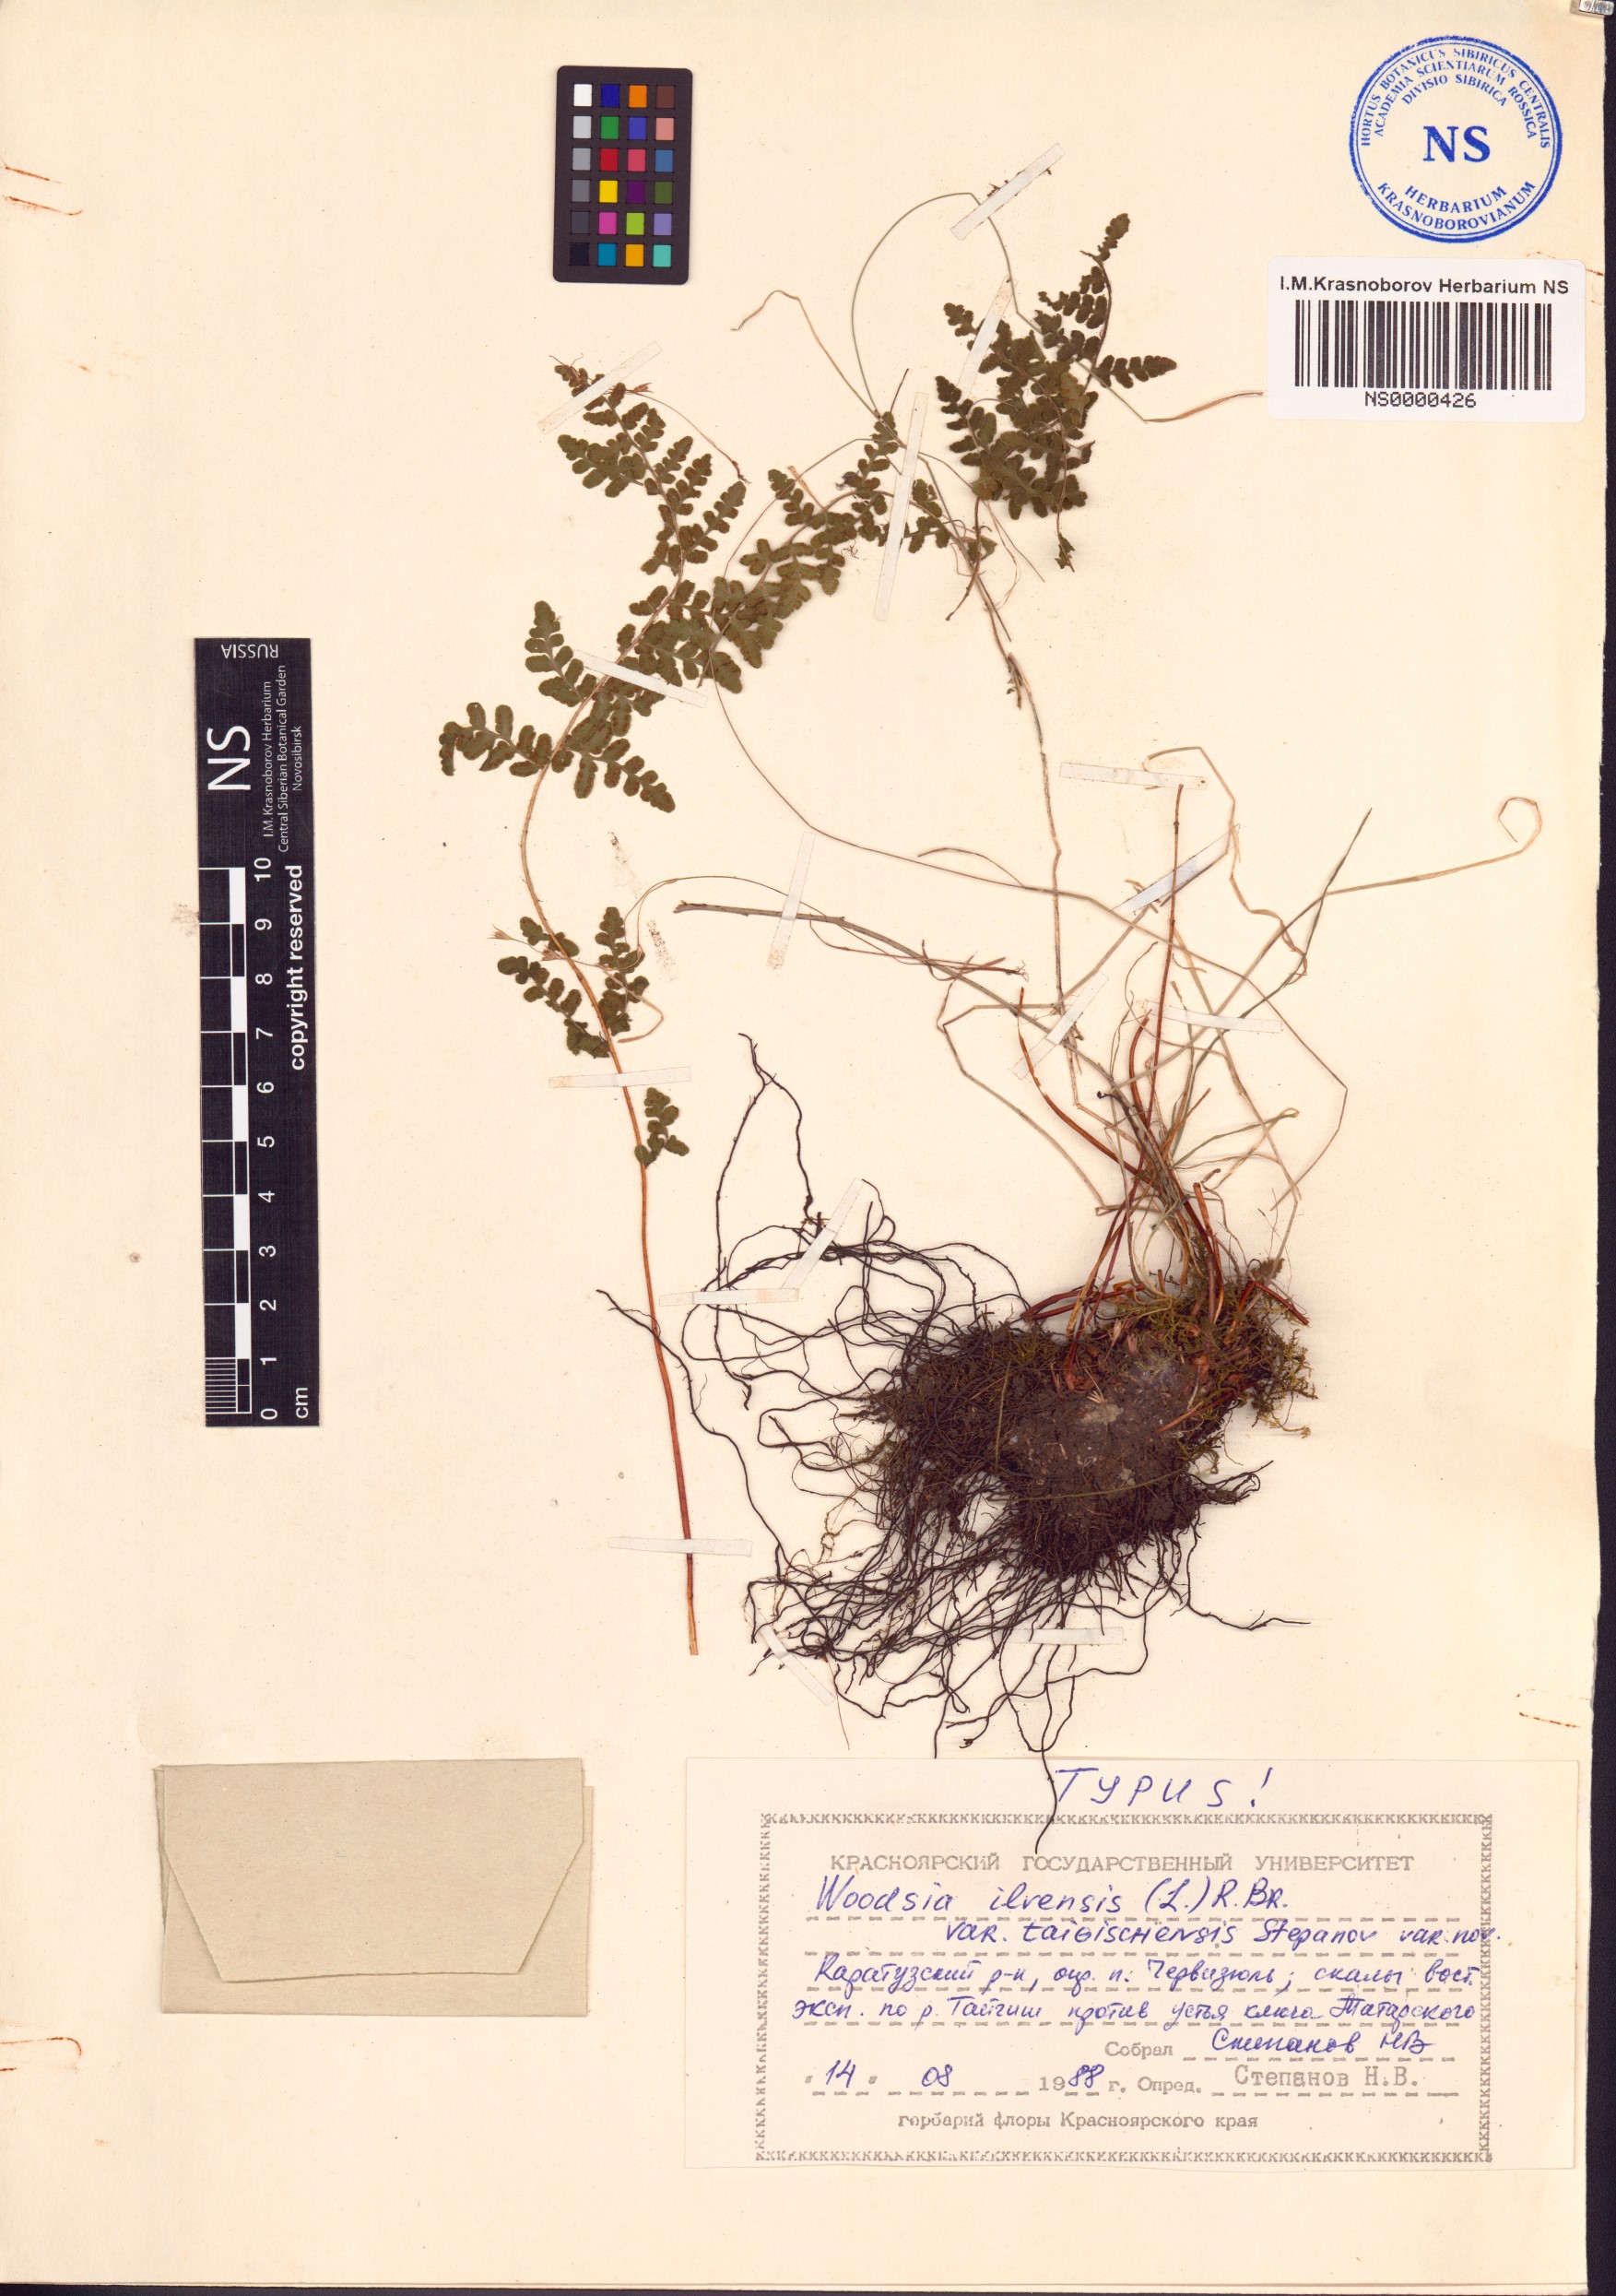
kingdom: Plantae
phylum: Tracheophyta
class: Polypodiopsida
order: Polypodiales
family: Woodsiaceae
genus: Woodsia
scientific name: Woodsia taigischensis
